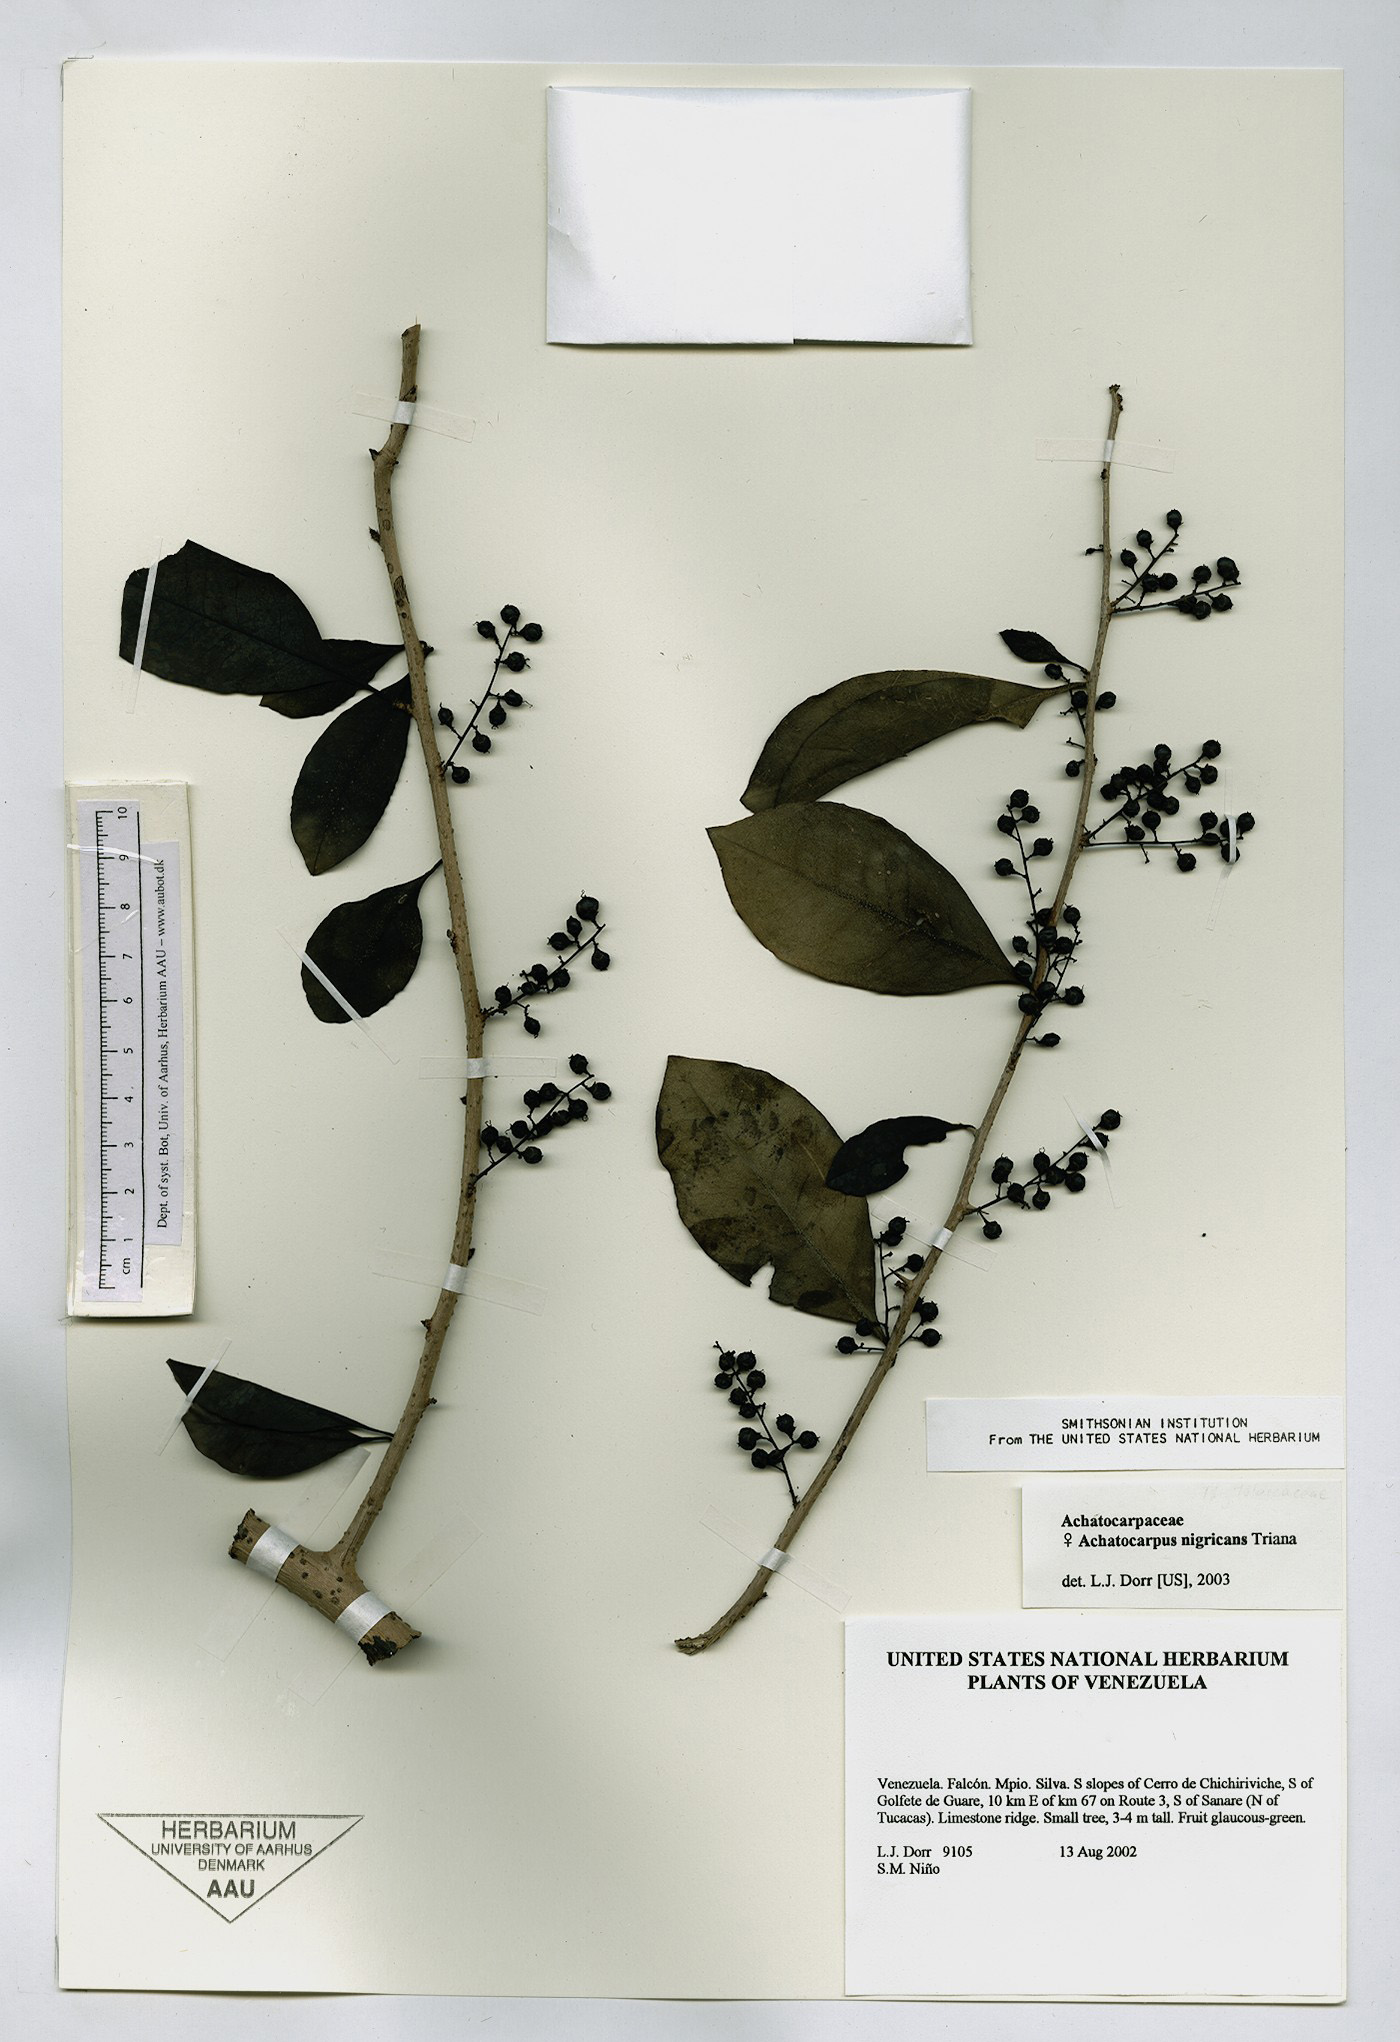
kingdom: Plantae
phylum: Tracheophyta
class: Magnoliopsida
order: Caryophyllales
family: Achatocarpaceae
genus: Achatocarpus
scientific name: Achatocarpus nigricans
